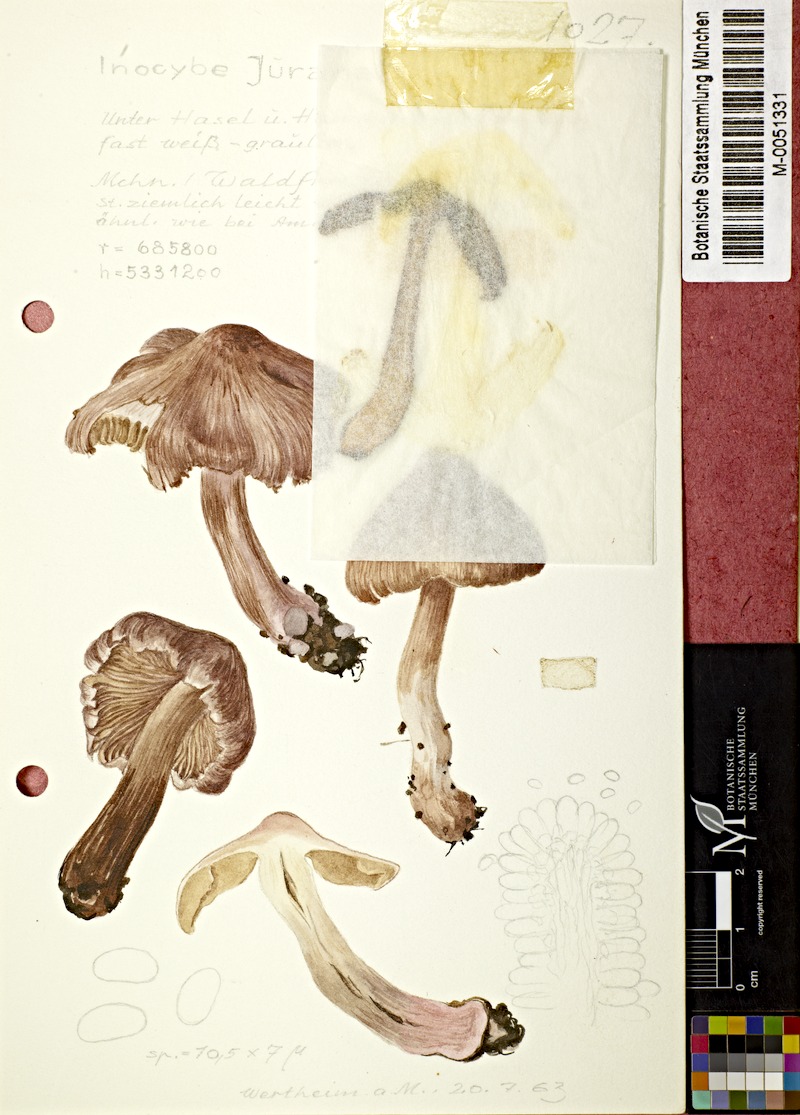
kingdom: Fungi
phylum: Basidiomycota
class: Agaricomycetes
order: Agaricales
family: Inocybaceae
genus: Inosperma
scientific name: Inosperma adaequatum
